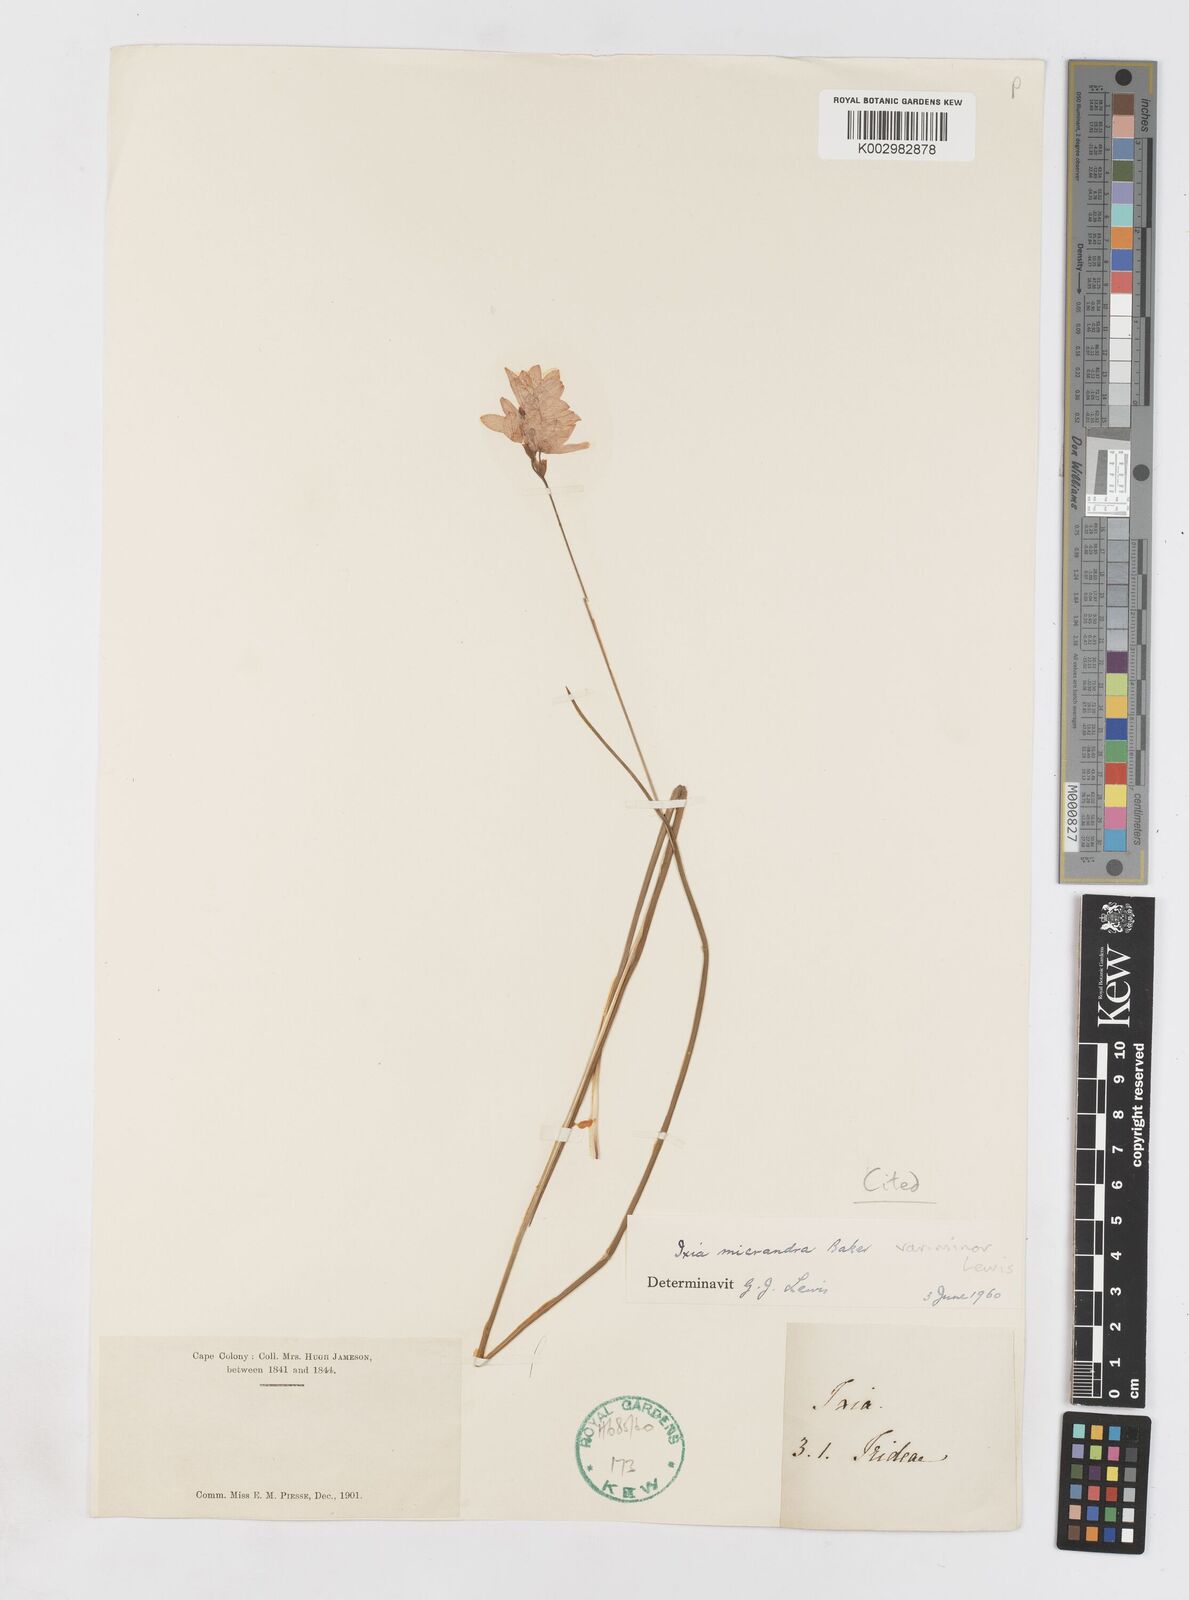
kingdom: Plantae
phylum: Tracheophyta
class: Liliopsida
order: Asparagales
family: Iridaceae
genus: Ixia
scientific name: Ixia minor
